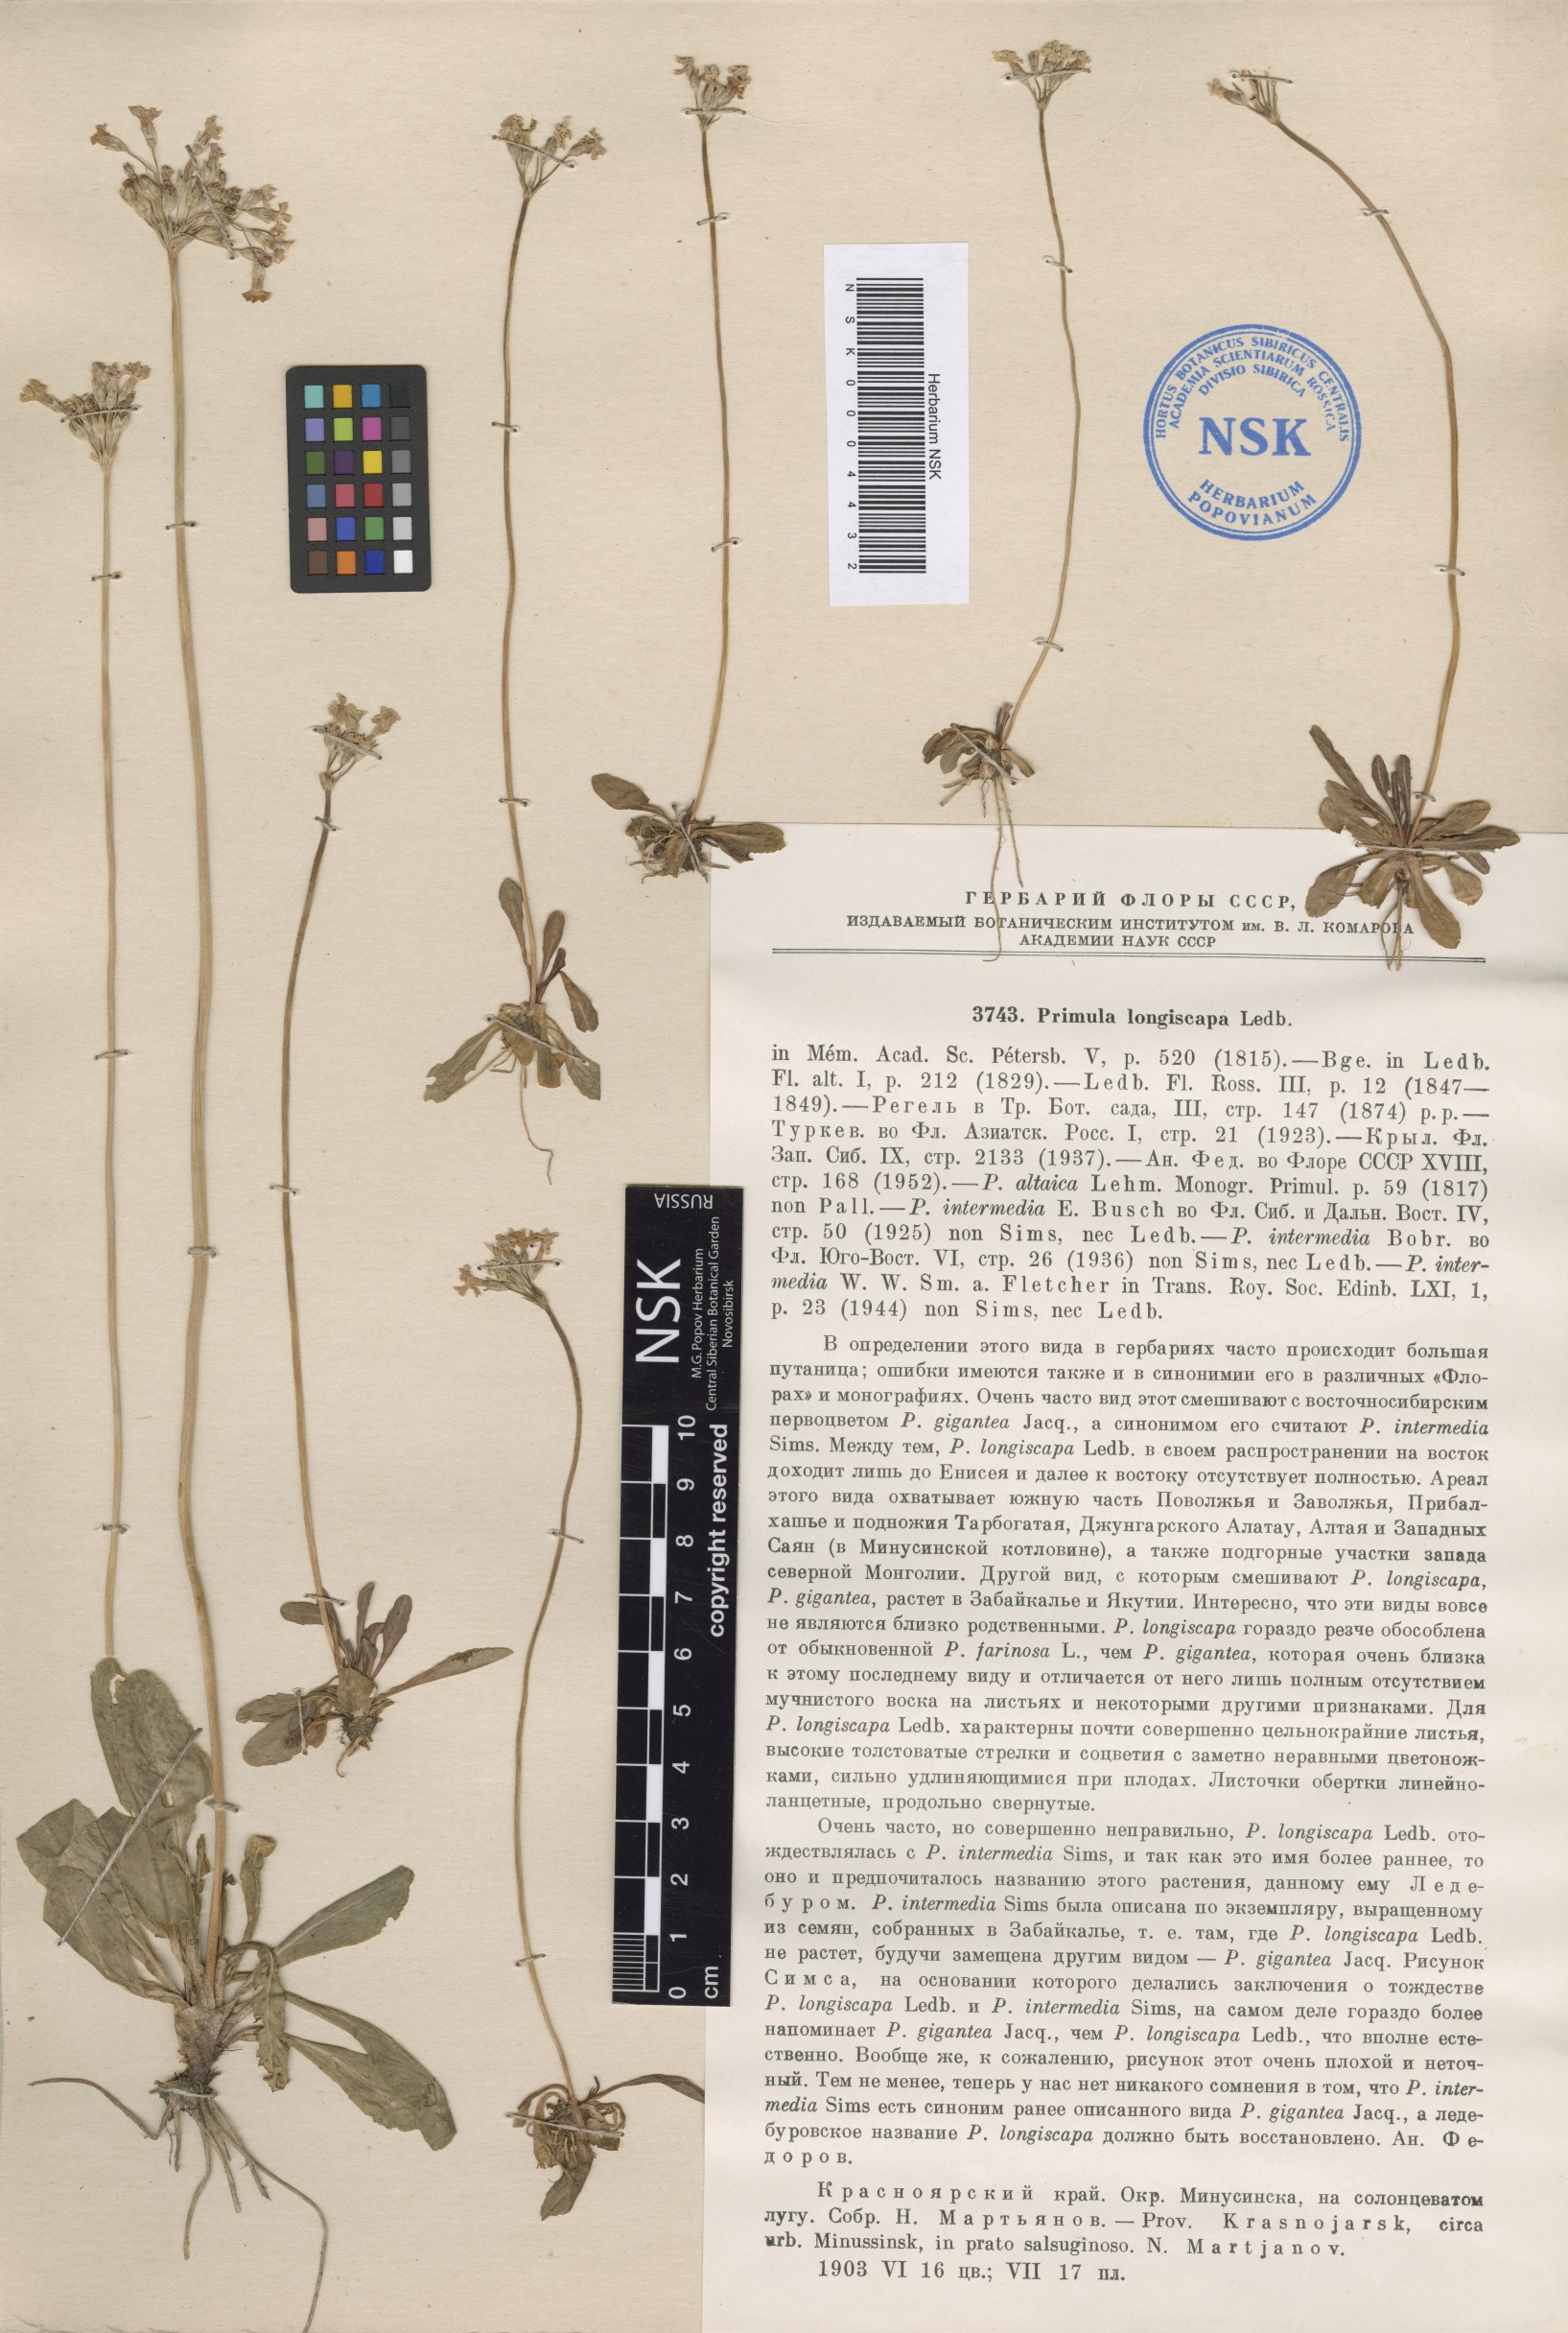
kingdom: Plantae
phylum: Tracheophyta
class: Magnoliopsida
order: Ericales
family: Primulaceae
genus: Primula
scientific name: Primula longiscapa
